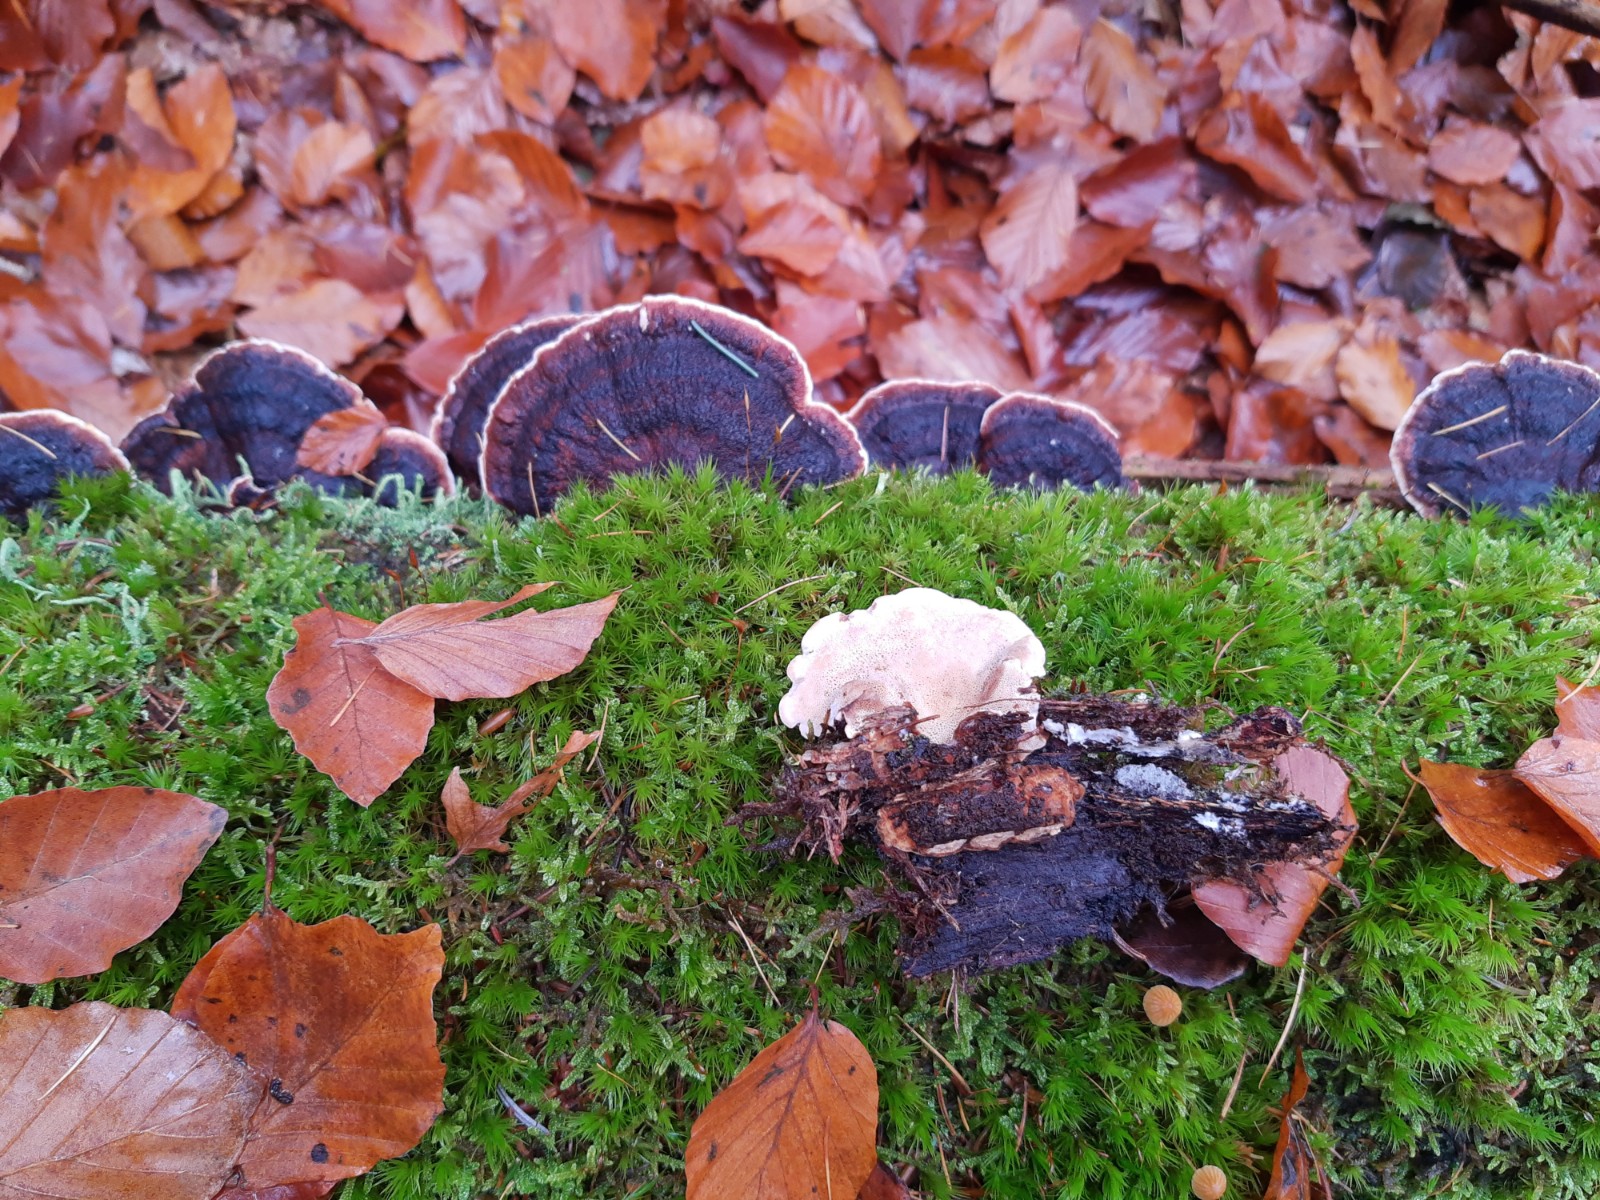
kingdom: Fungi
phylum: Basidiomycota
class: Agaricomycetes
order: Polyporales
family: Ischnodermataceae
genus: Ischnoderma
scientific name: Ischnoderma benzoinum
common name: gran-tjæreporesvamp
